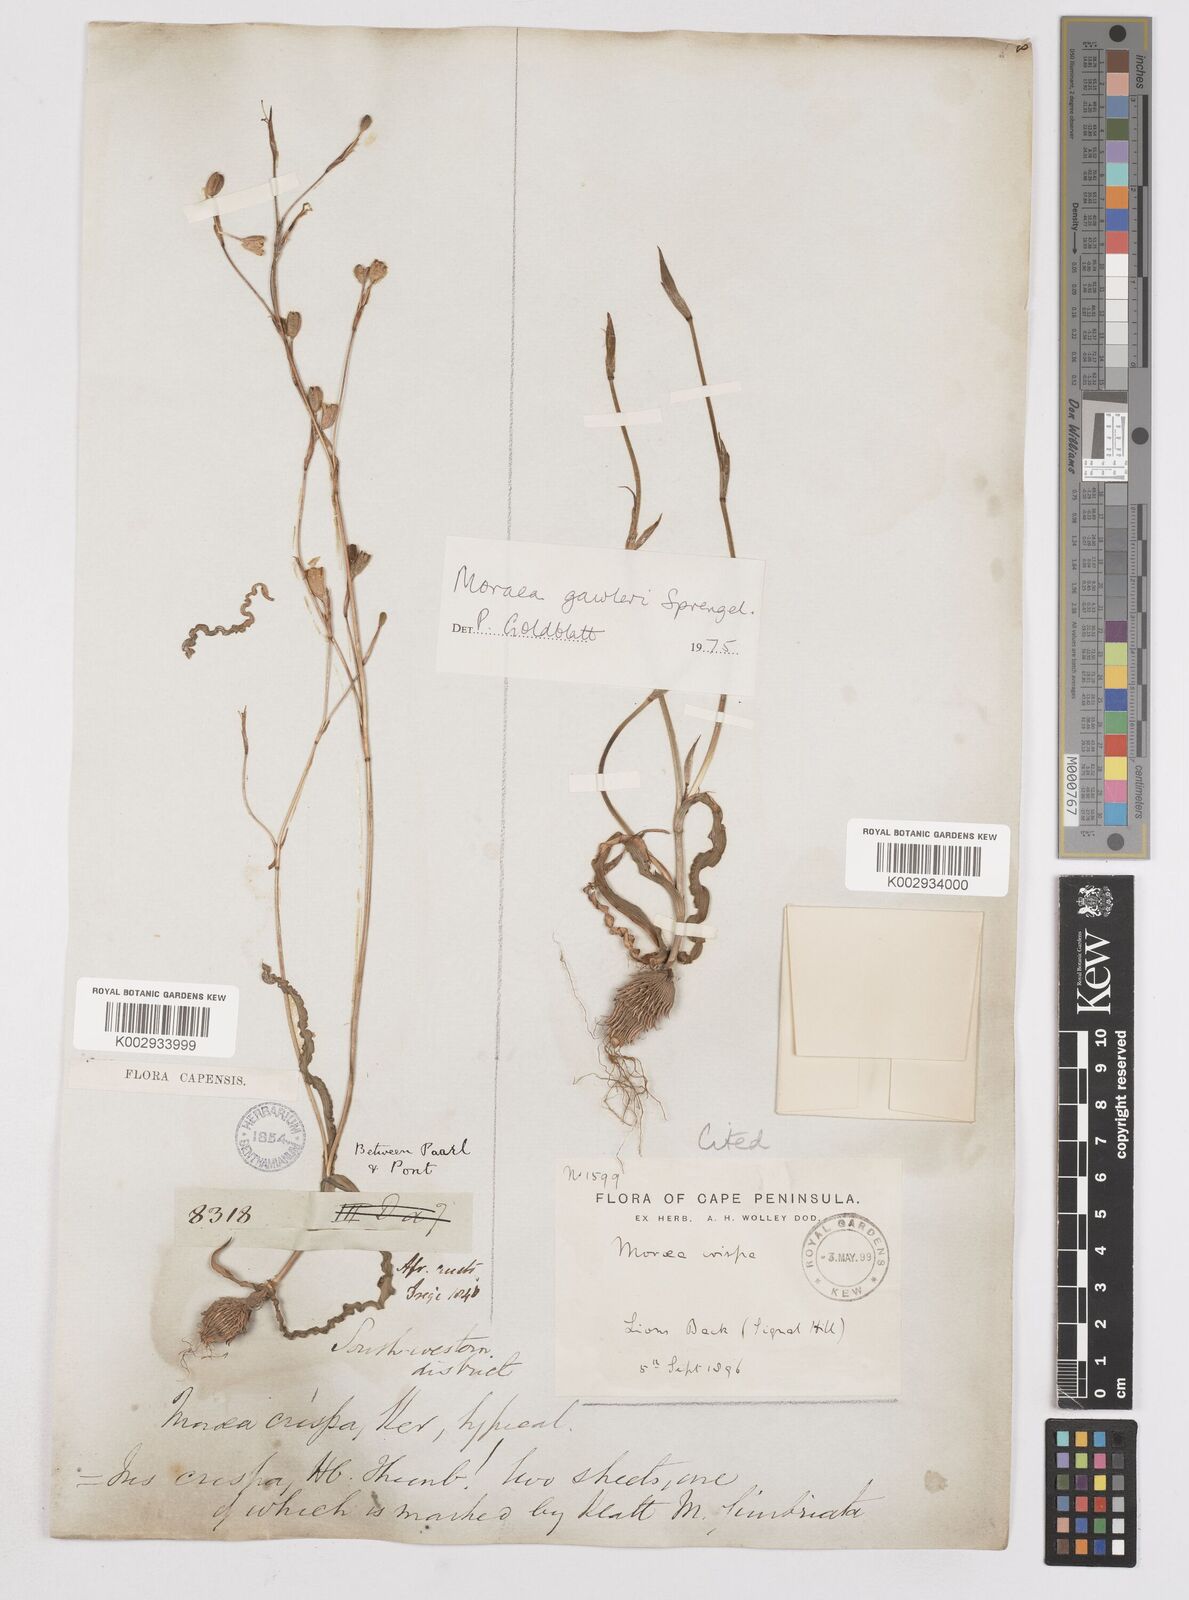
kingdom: Plantae
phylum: Tracheophyta
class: Liliopsida
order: Asparagales
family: Iridaceae
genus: Moraea
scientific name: Moraea gawleri
